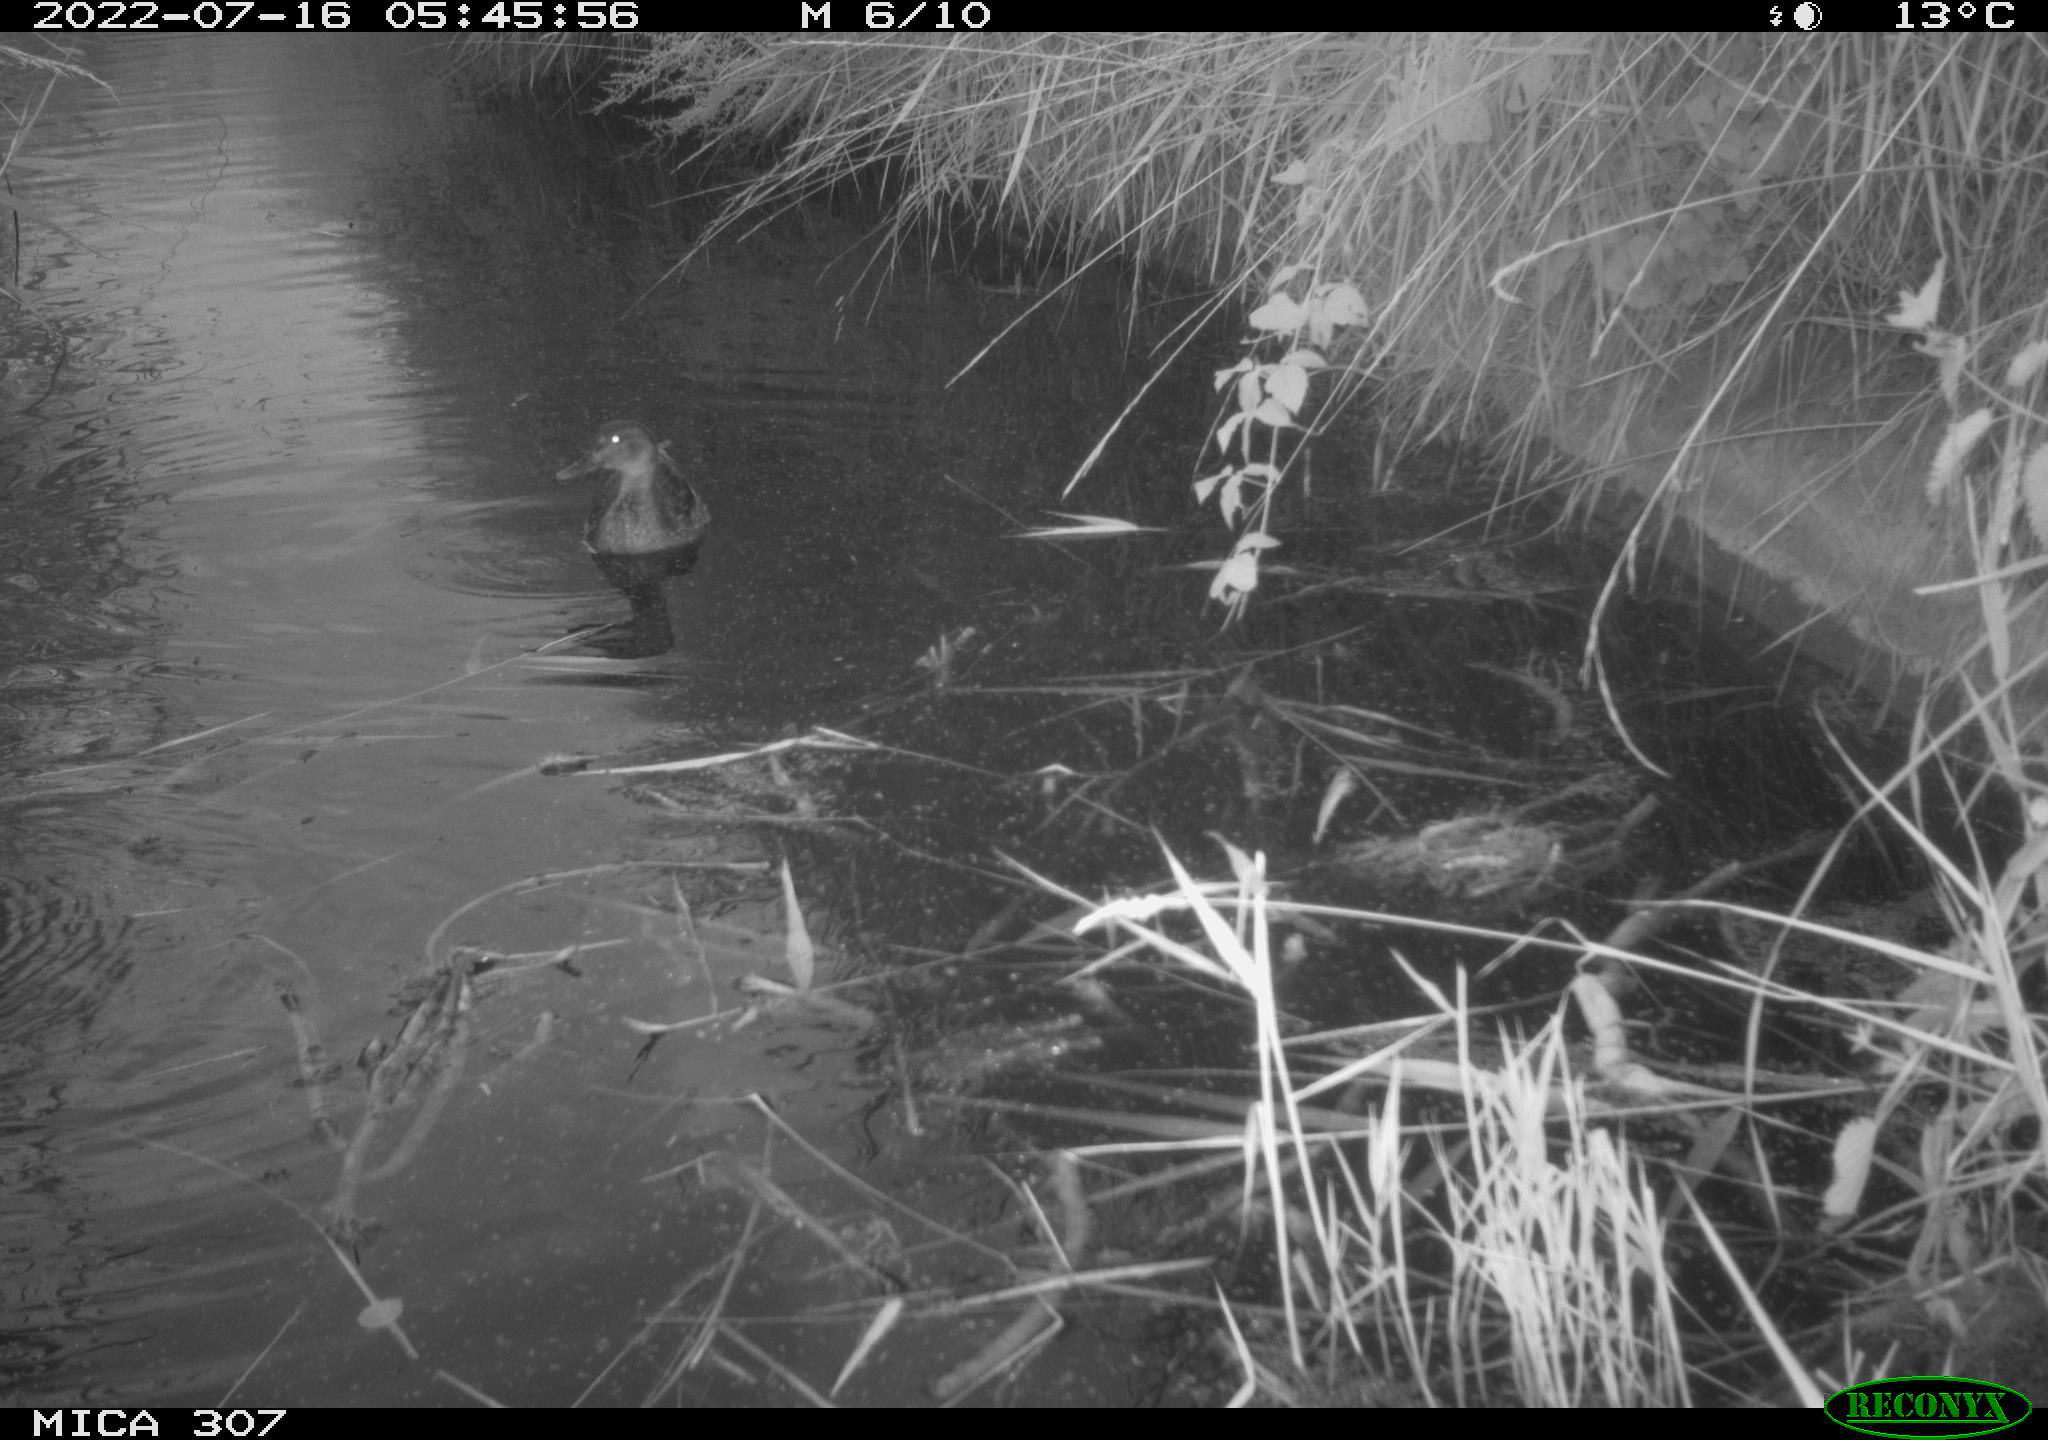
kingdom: Animalia
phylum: Chordata
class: Aves
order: Anseriformes
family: Anatidae
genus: Anas
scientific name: Anas platyrhynchos
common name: Mallard
